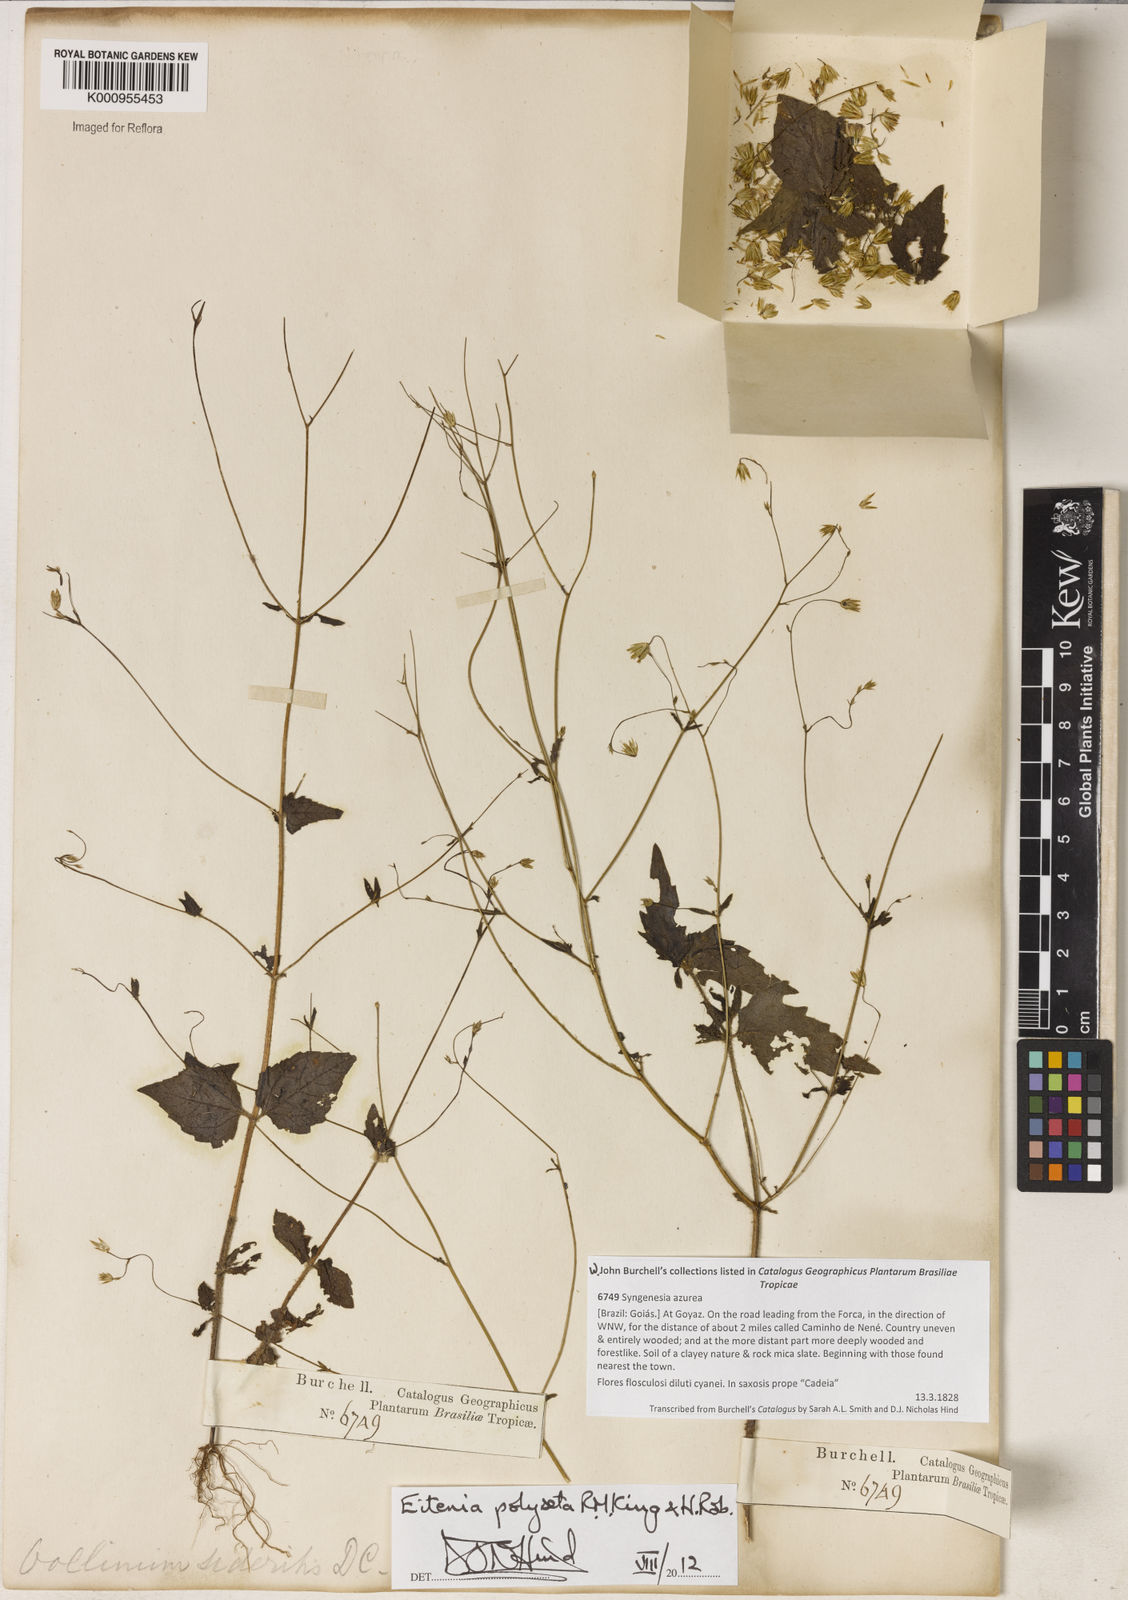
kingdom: Plantae
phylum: Tracheophyta
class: Magnoliopsida
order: Asterales
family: Asteraceae
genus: Eitenia
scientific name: Eitenia polyseta
